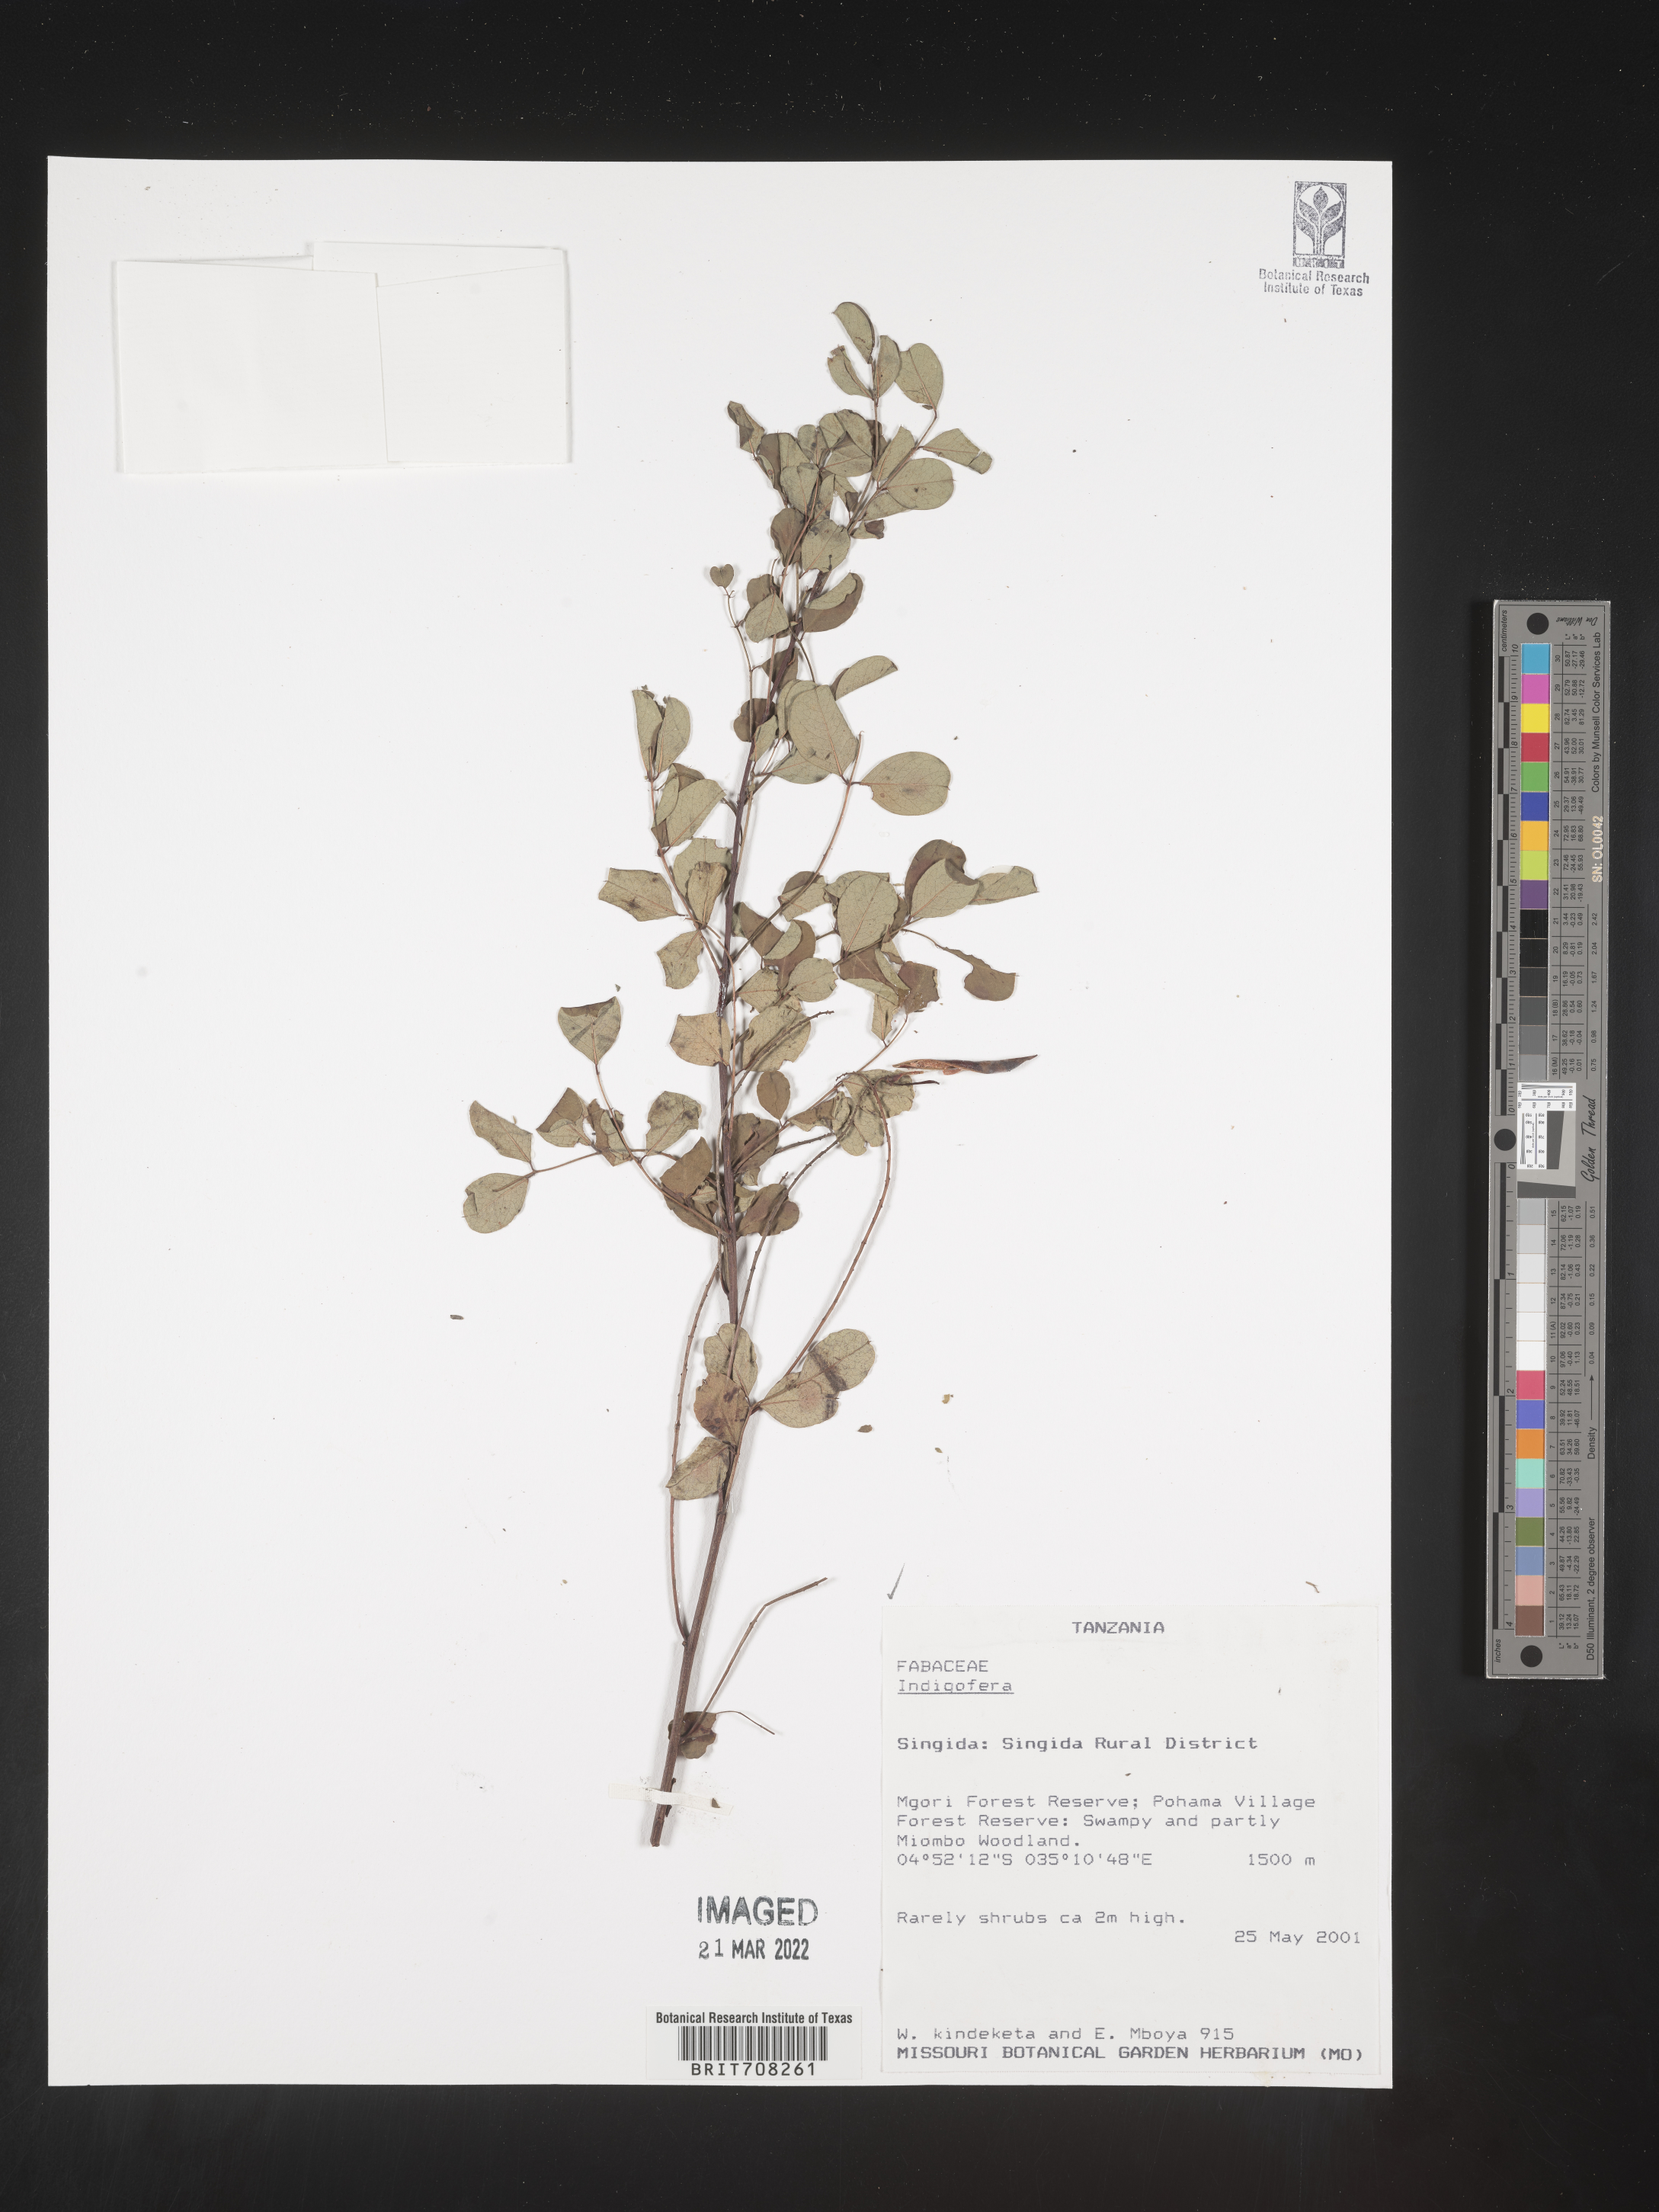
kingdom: Plantae
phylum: Tracheophyta
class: Magnoliopsida
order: Fabales
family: Fabaceae
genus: Indigofera
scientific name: Indigofera
